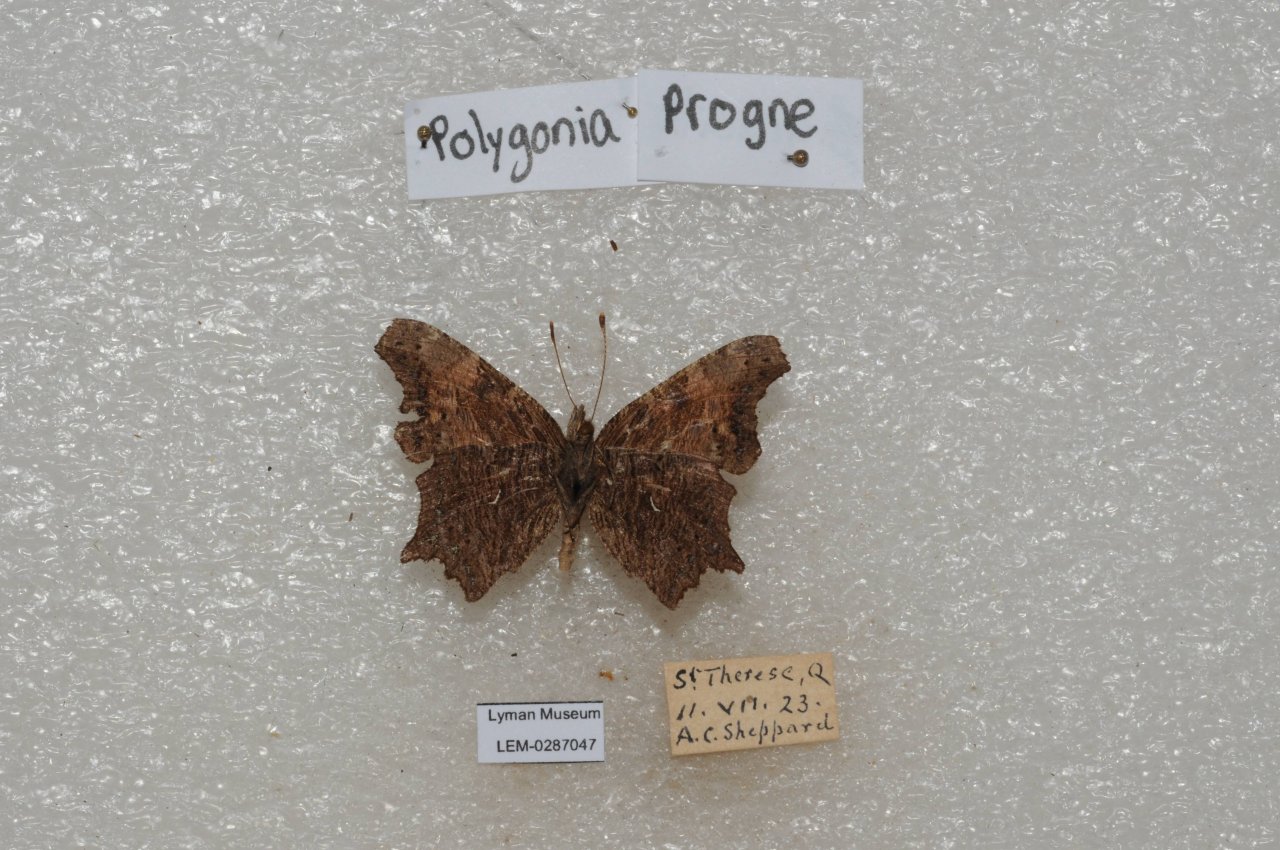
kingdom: Animalia
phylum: Arthropoda
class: Insecta
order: Lepidoptera
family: Nymphalidae
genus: Polygonia
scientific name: Polygonia progne
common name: Gray Comma
